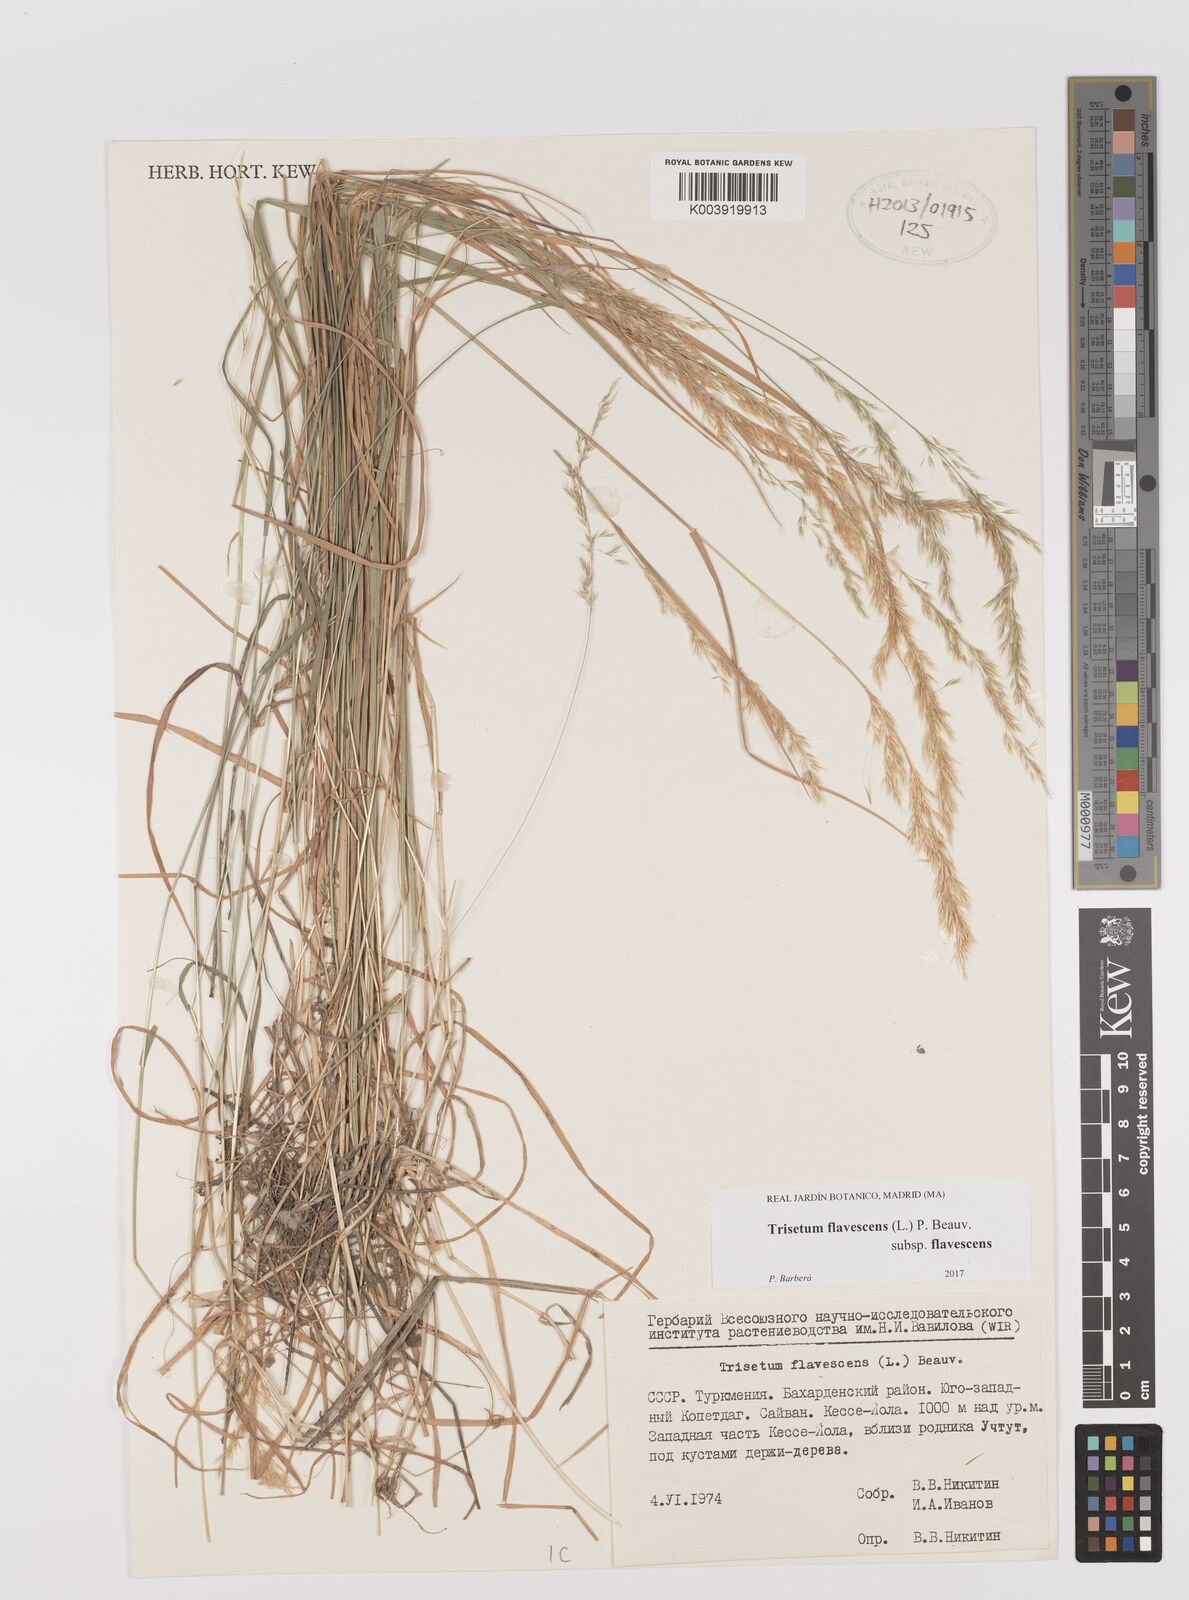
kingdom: Plantae
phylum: Tracheophyta
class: Liliopsida
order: Poales
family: Poaceae
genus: Trisetum
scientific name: Trisetum flavescens
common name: Yellow oat-grass
